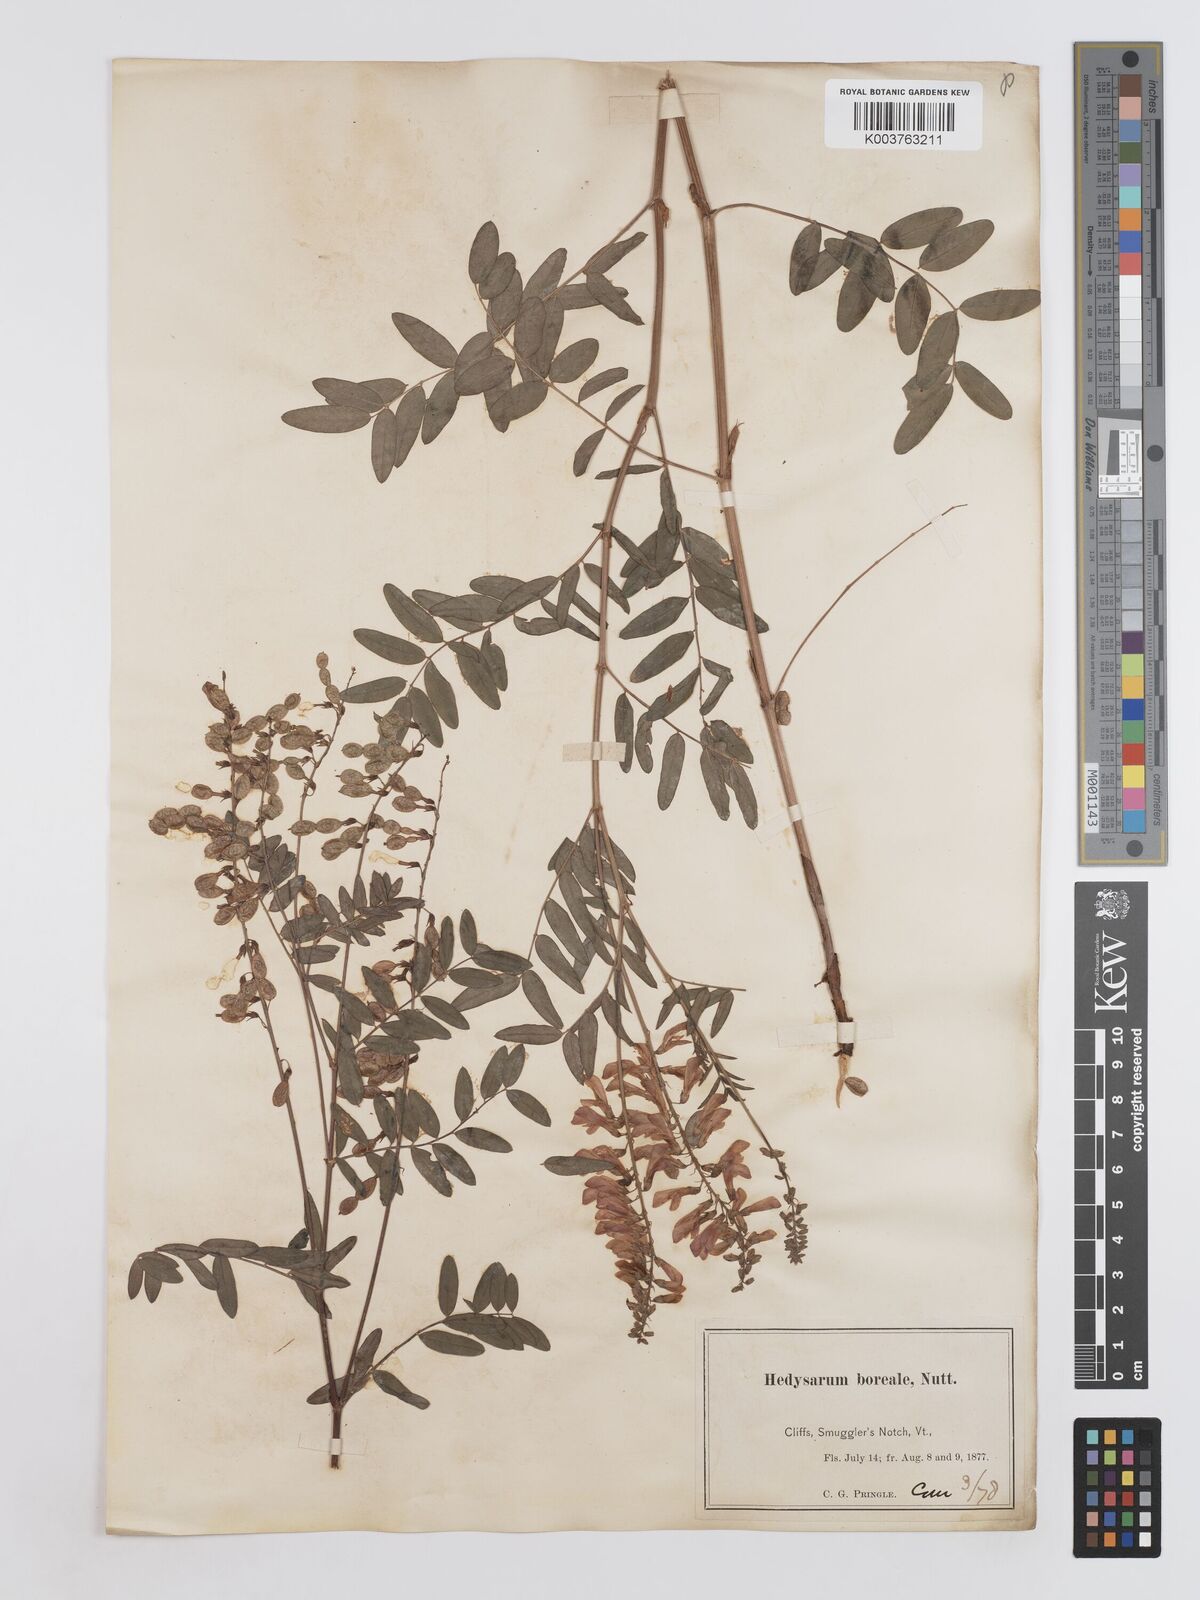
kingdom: Plantae
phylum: Tracheophyta
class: Magnoliopsida
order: Fabales
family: Fabaceae
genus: Hedysarum
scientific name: Hedysarum boreale
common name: Northern sweet-vetch
